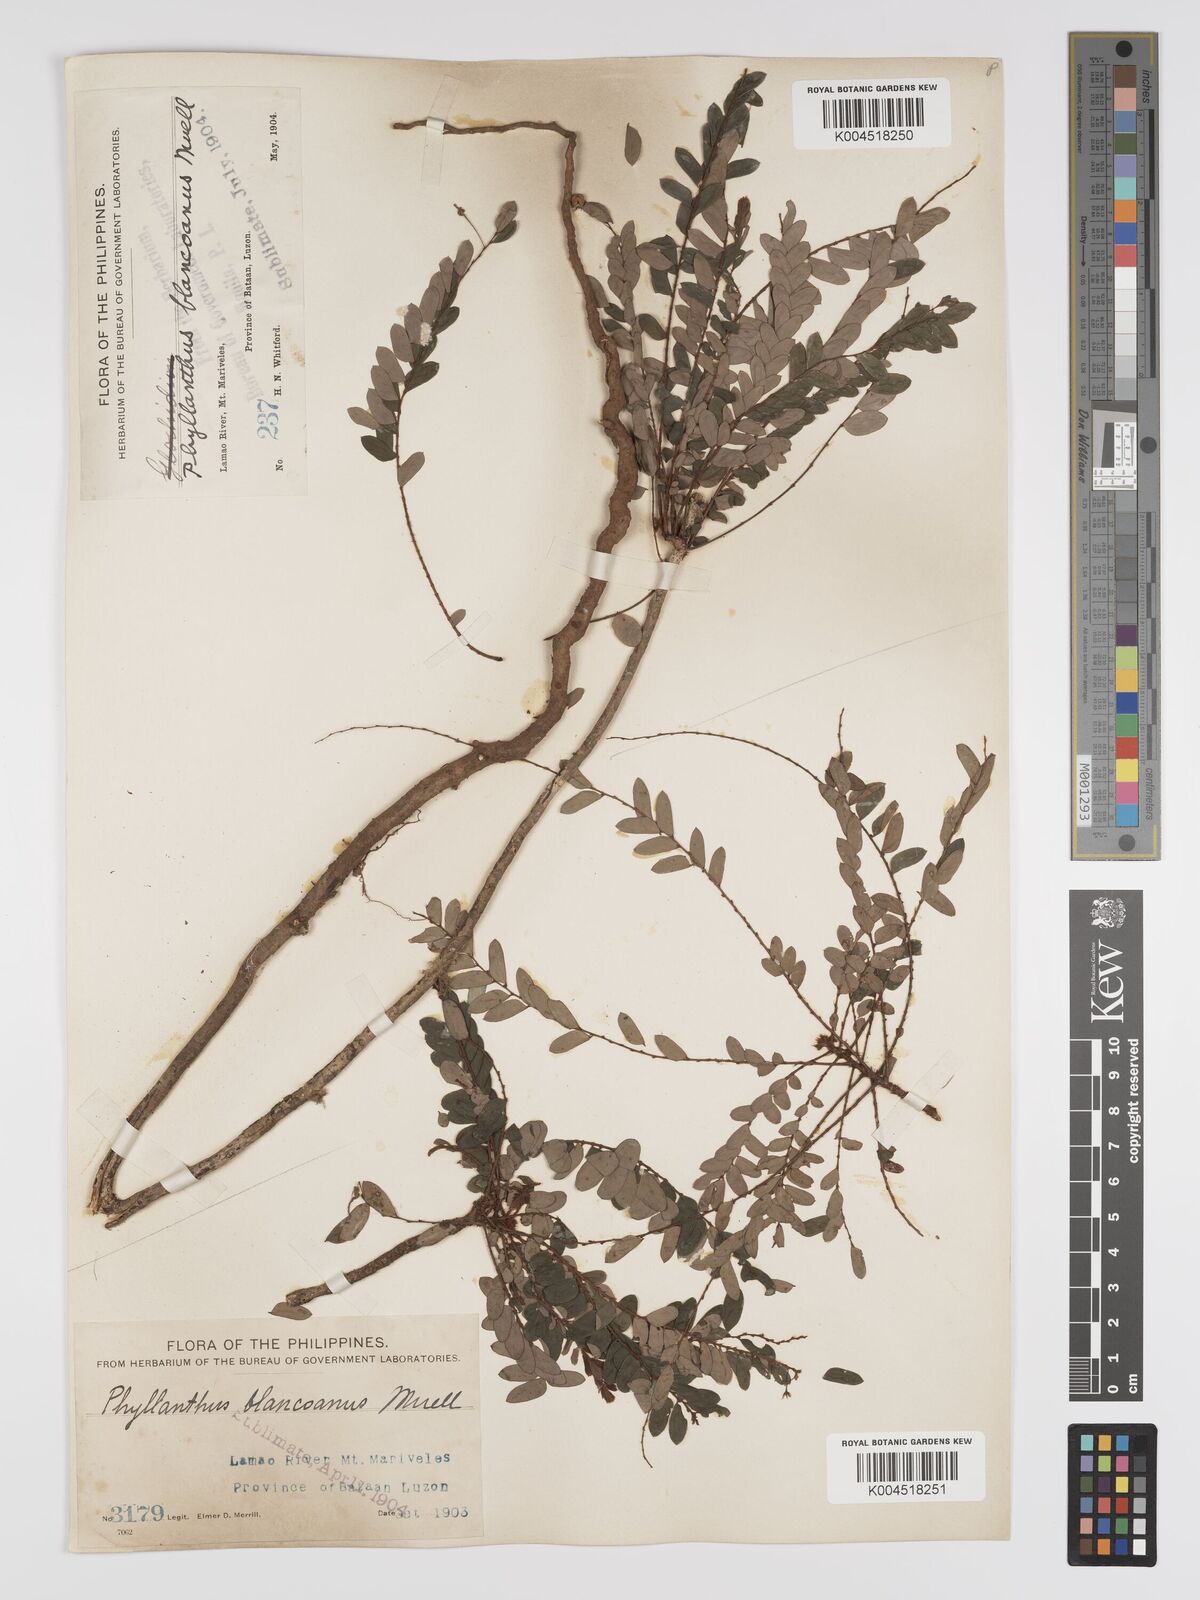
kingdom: Plantae
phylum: Tracheophyta
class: Magnoliopsida
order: Malpighiales
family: Phyllanthaceae
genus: Phyllanthus
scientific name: Phyllanthus blancoanus
